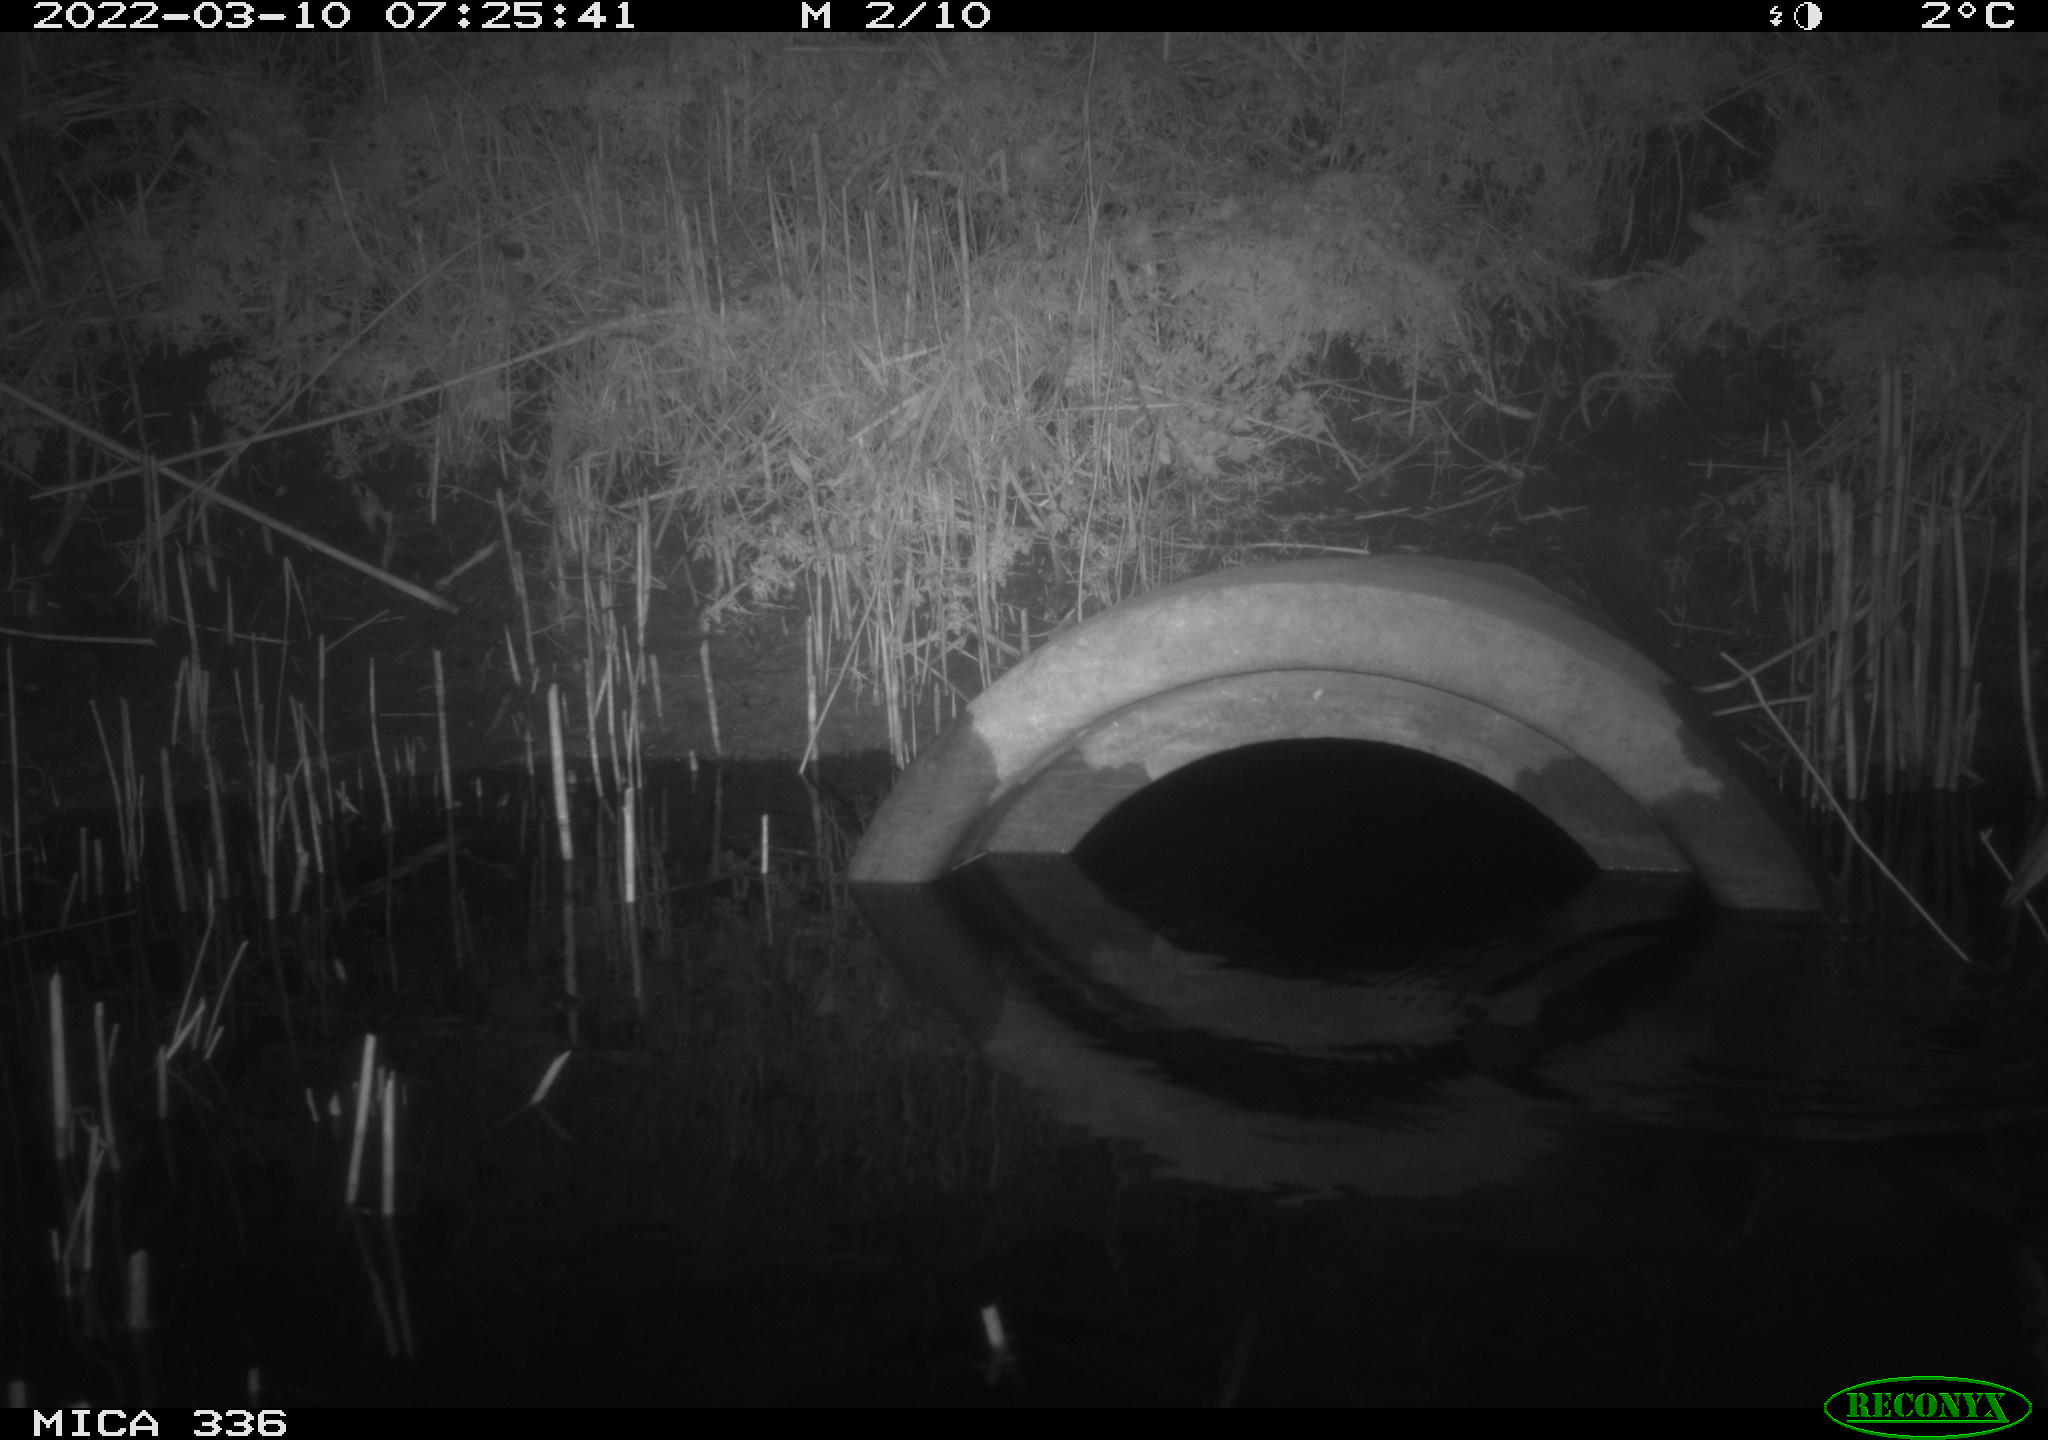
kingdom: Animalia
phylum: Chordata
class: Aves
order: Pelecaniformes
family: Ardeidae
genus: Ardea
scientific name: Ardea cinerea
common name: Grey heron
